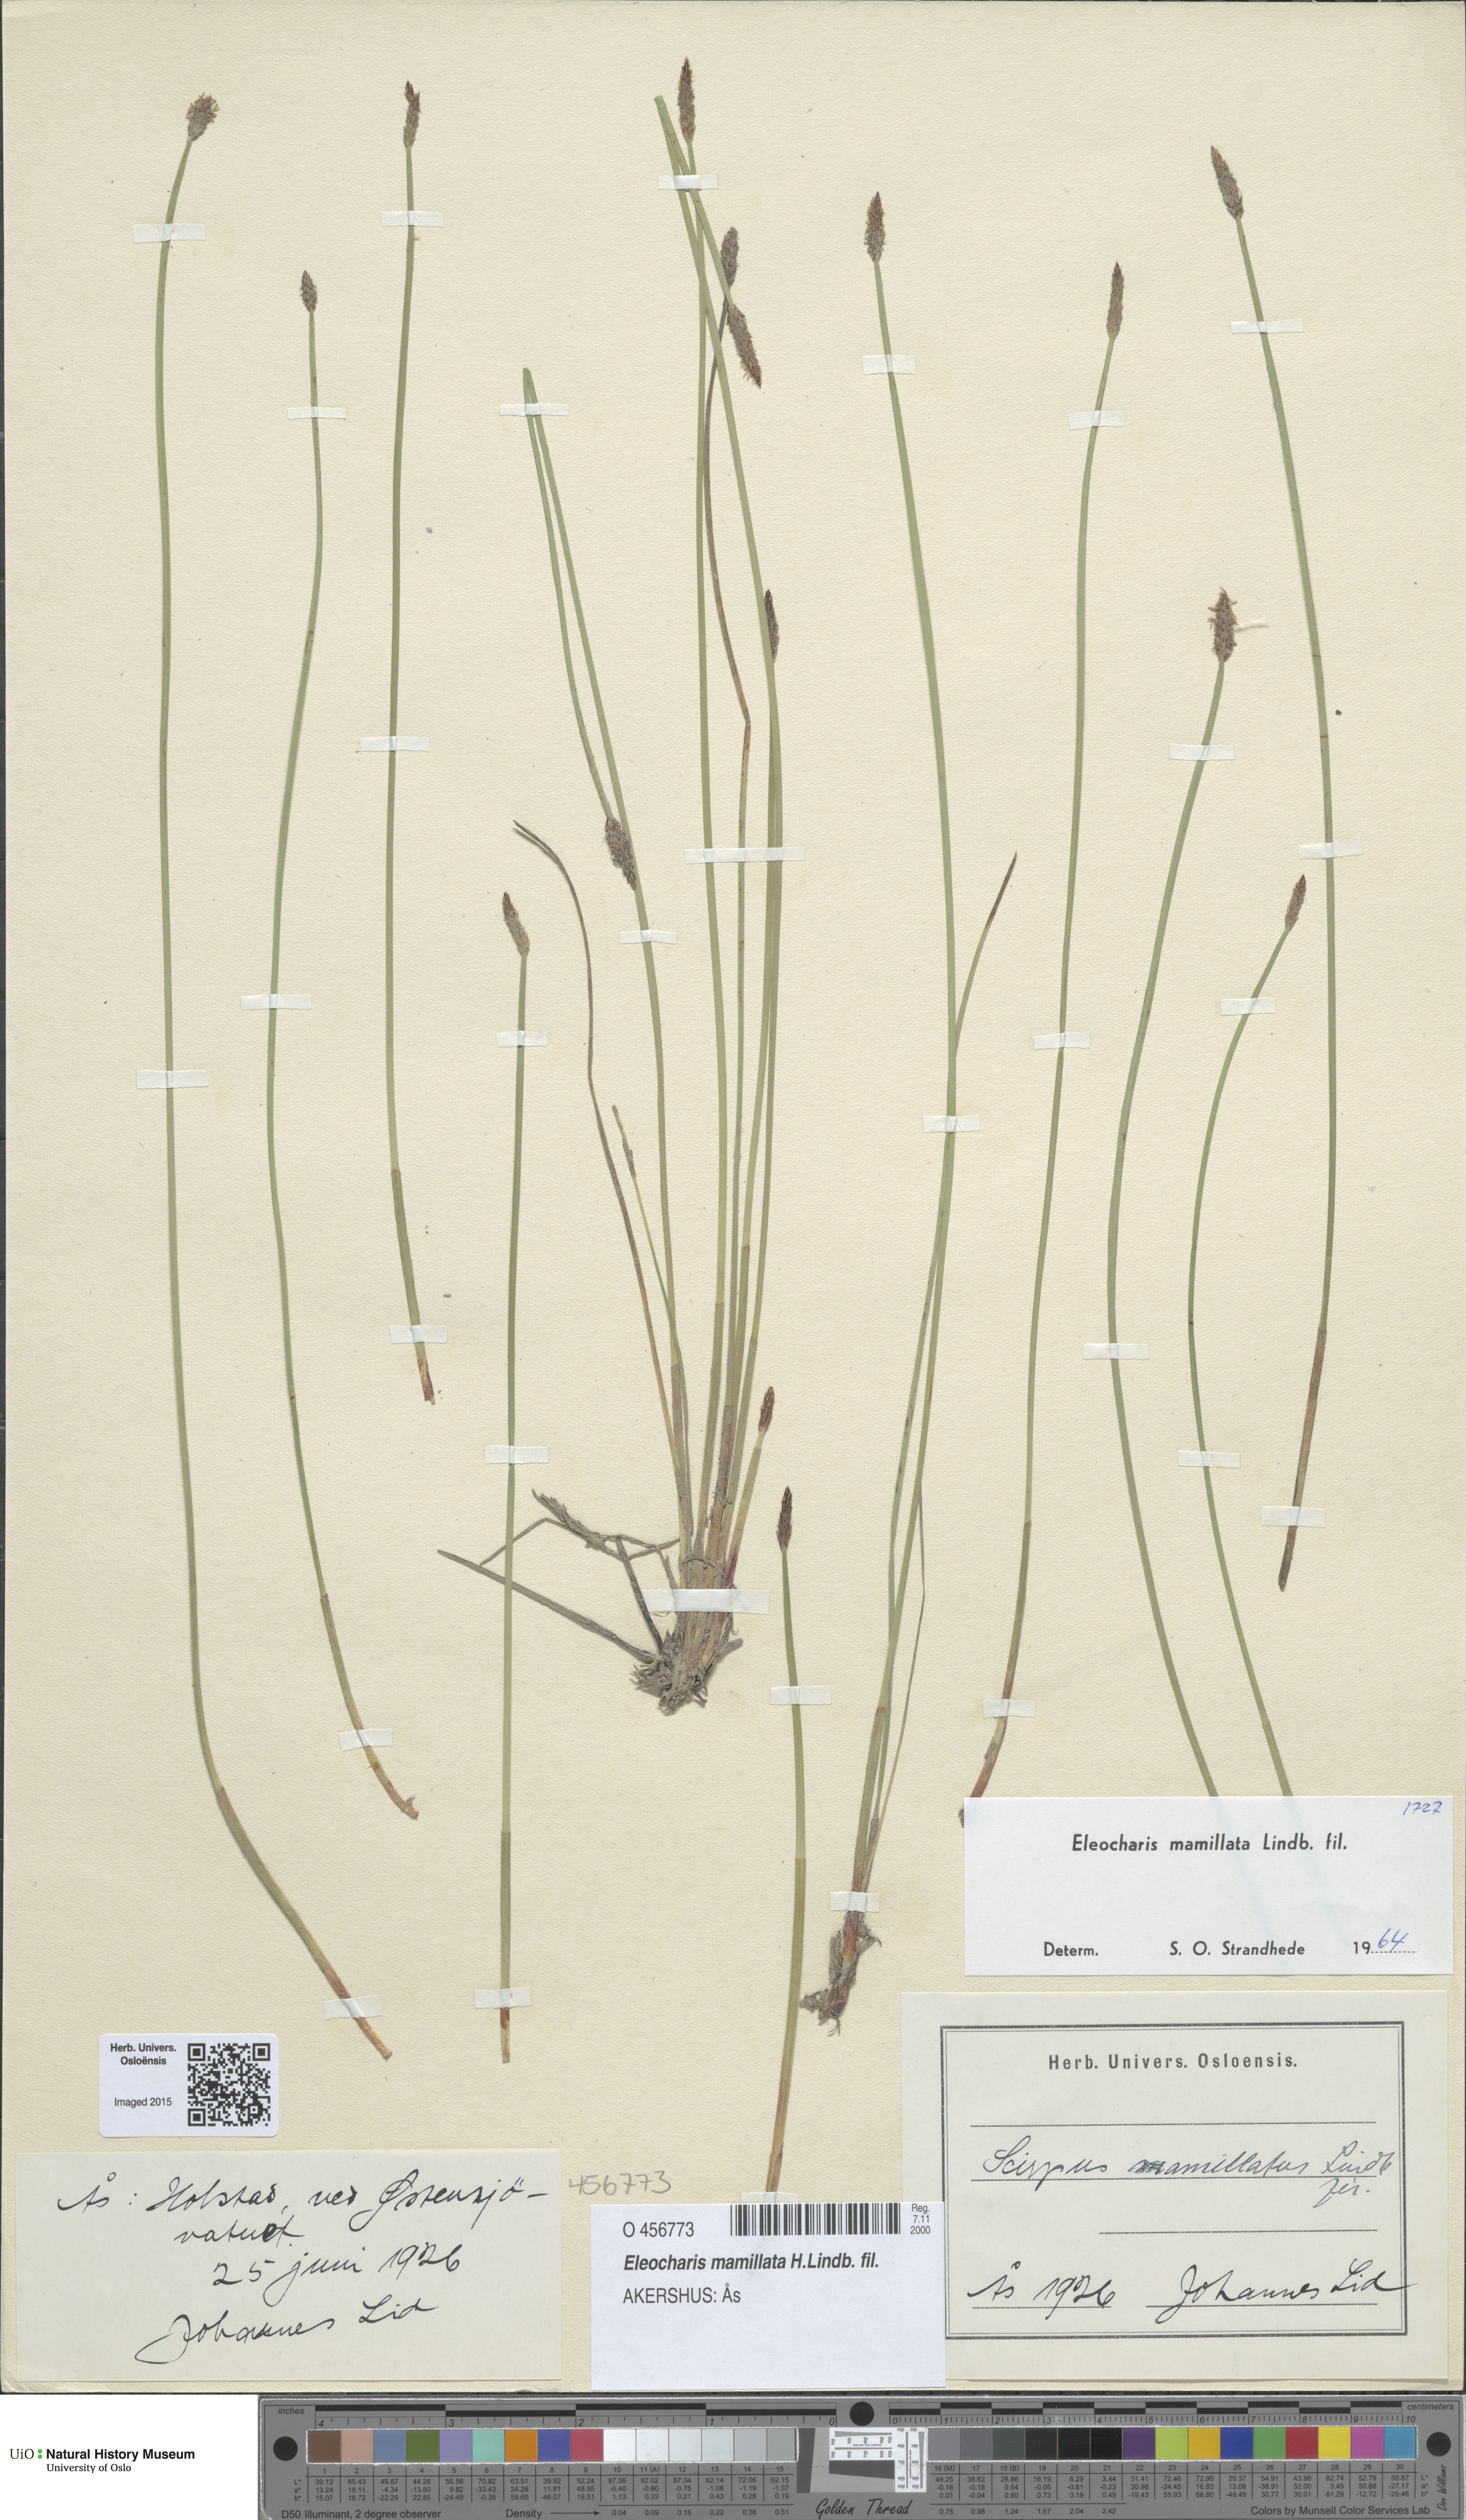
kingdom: Plantae
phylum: Tracheophyta
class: Liliopsida
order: Poales
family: Cyperaceae
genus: Eleocharis
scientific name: Eleocharis mamillata
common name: Northern spike-rush
